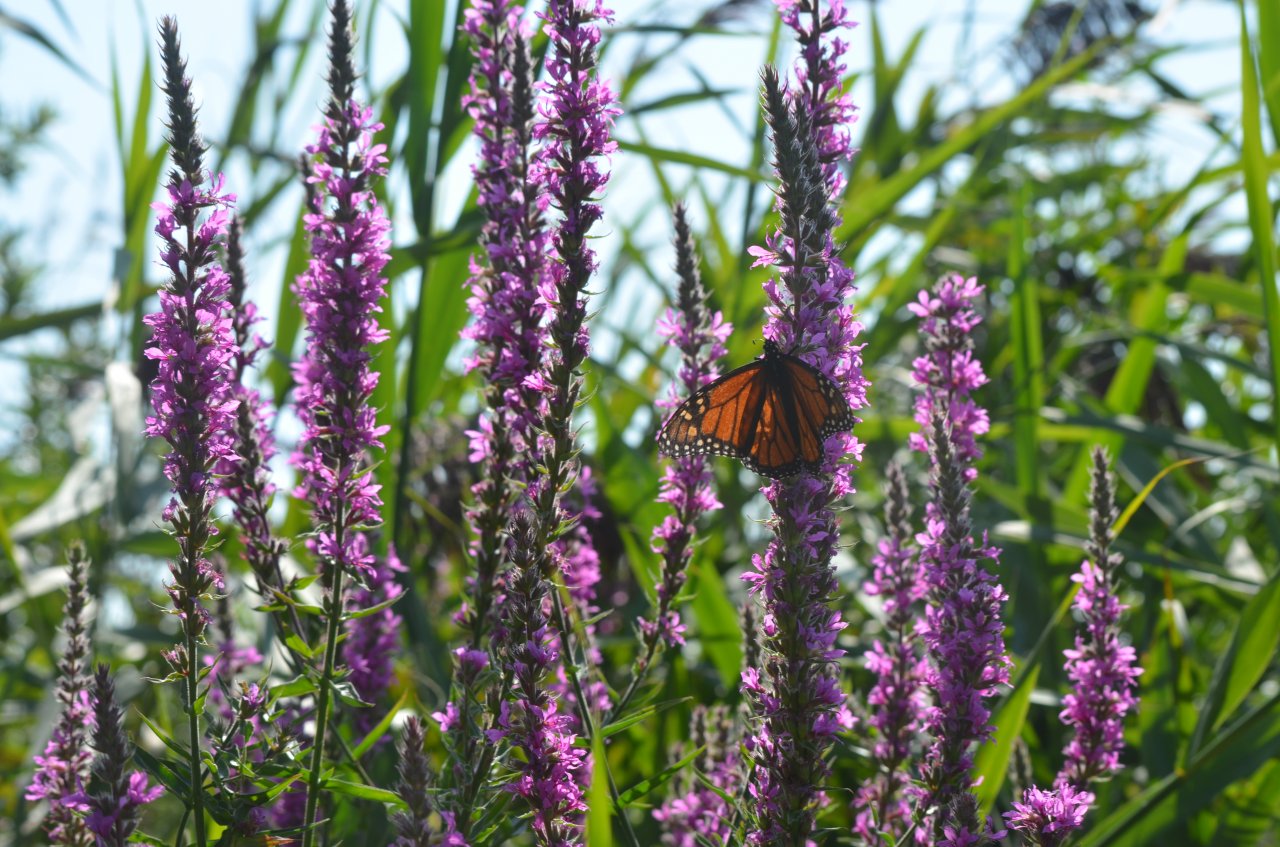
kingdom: Animalia
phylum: Arthropoda
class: Insecta
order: Lepidoptera
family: Nymphalidae
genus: Danaus
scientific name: Danaus plexippus
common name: Monarch
